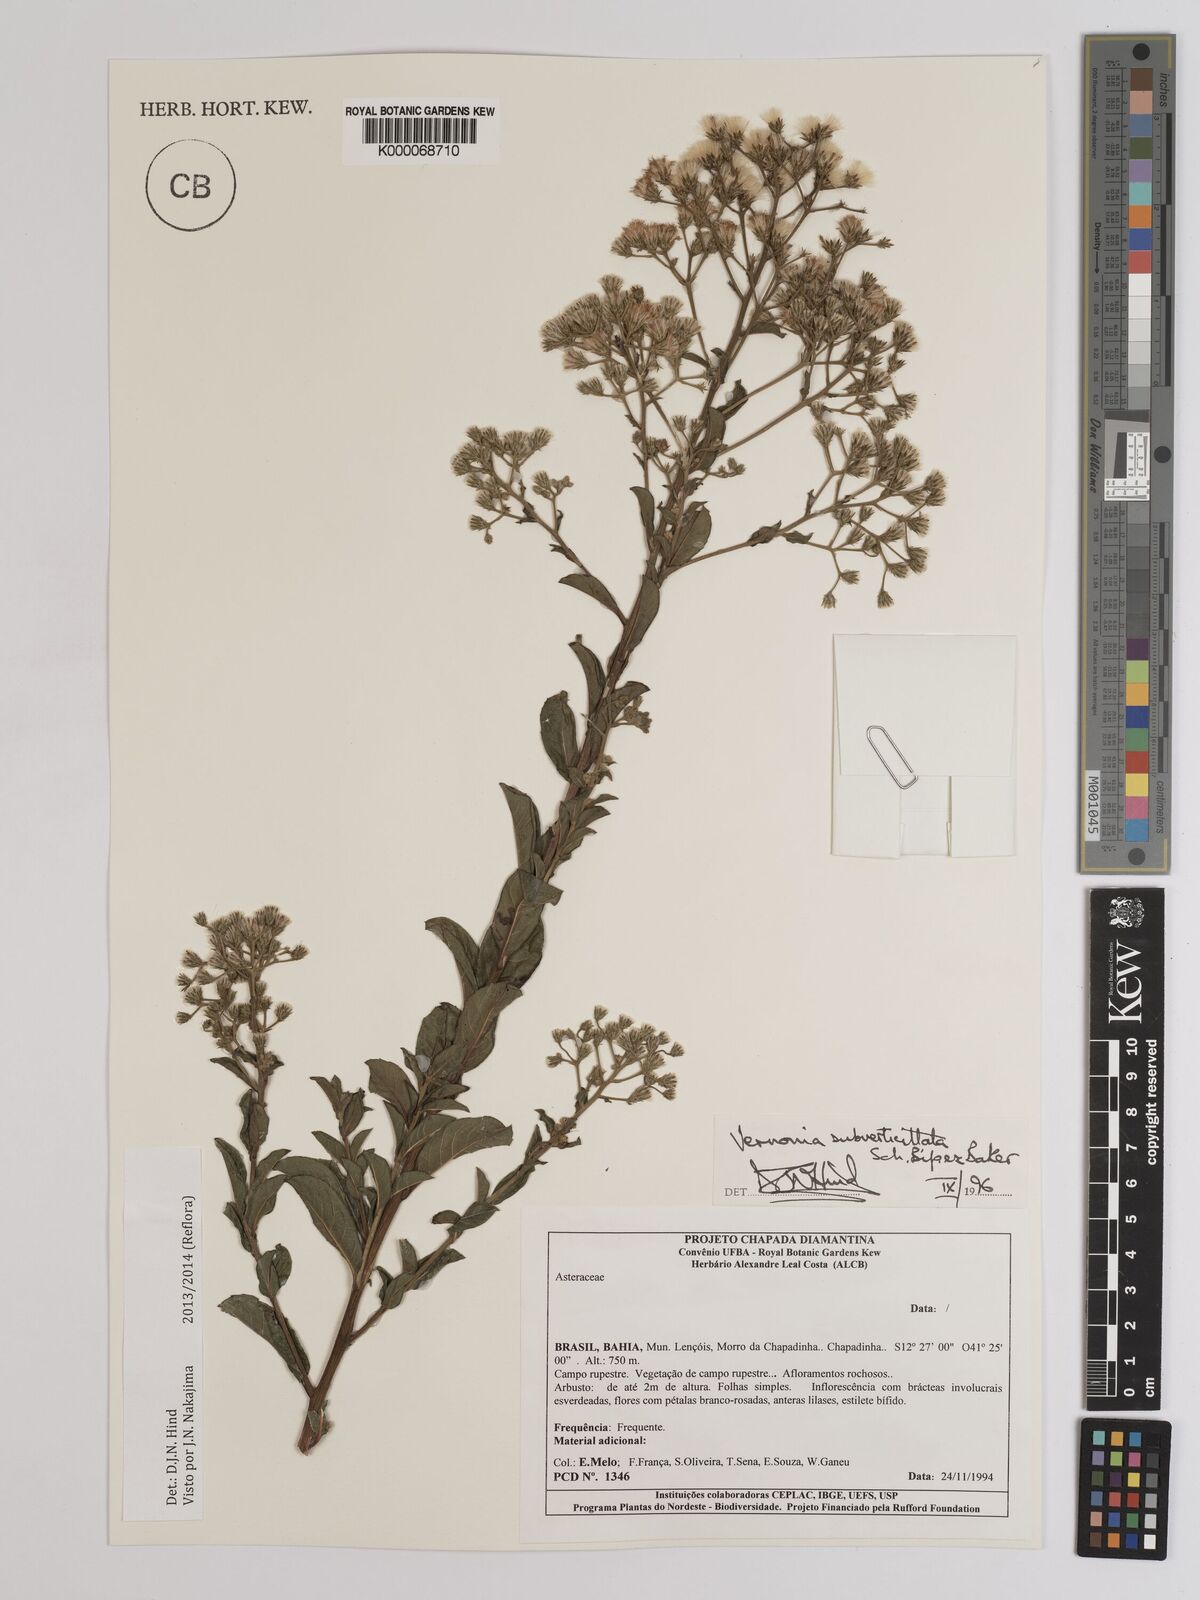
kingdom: Plantae
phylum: Tracheophyta
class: Magnoliopsida
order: Asterales
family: Asteraceae
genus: Vernonia
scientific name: Vernonia
